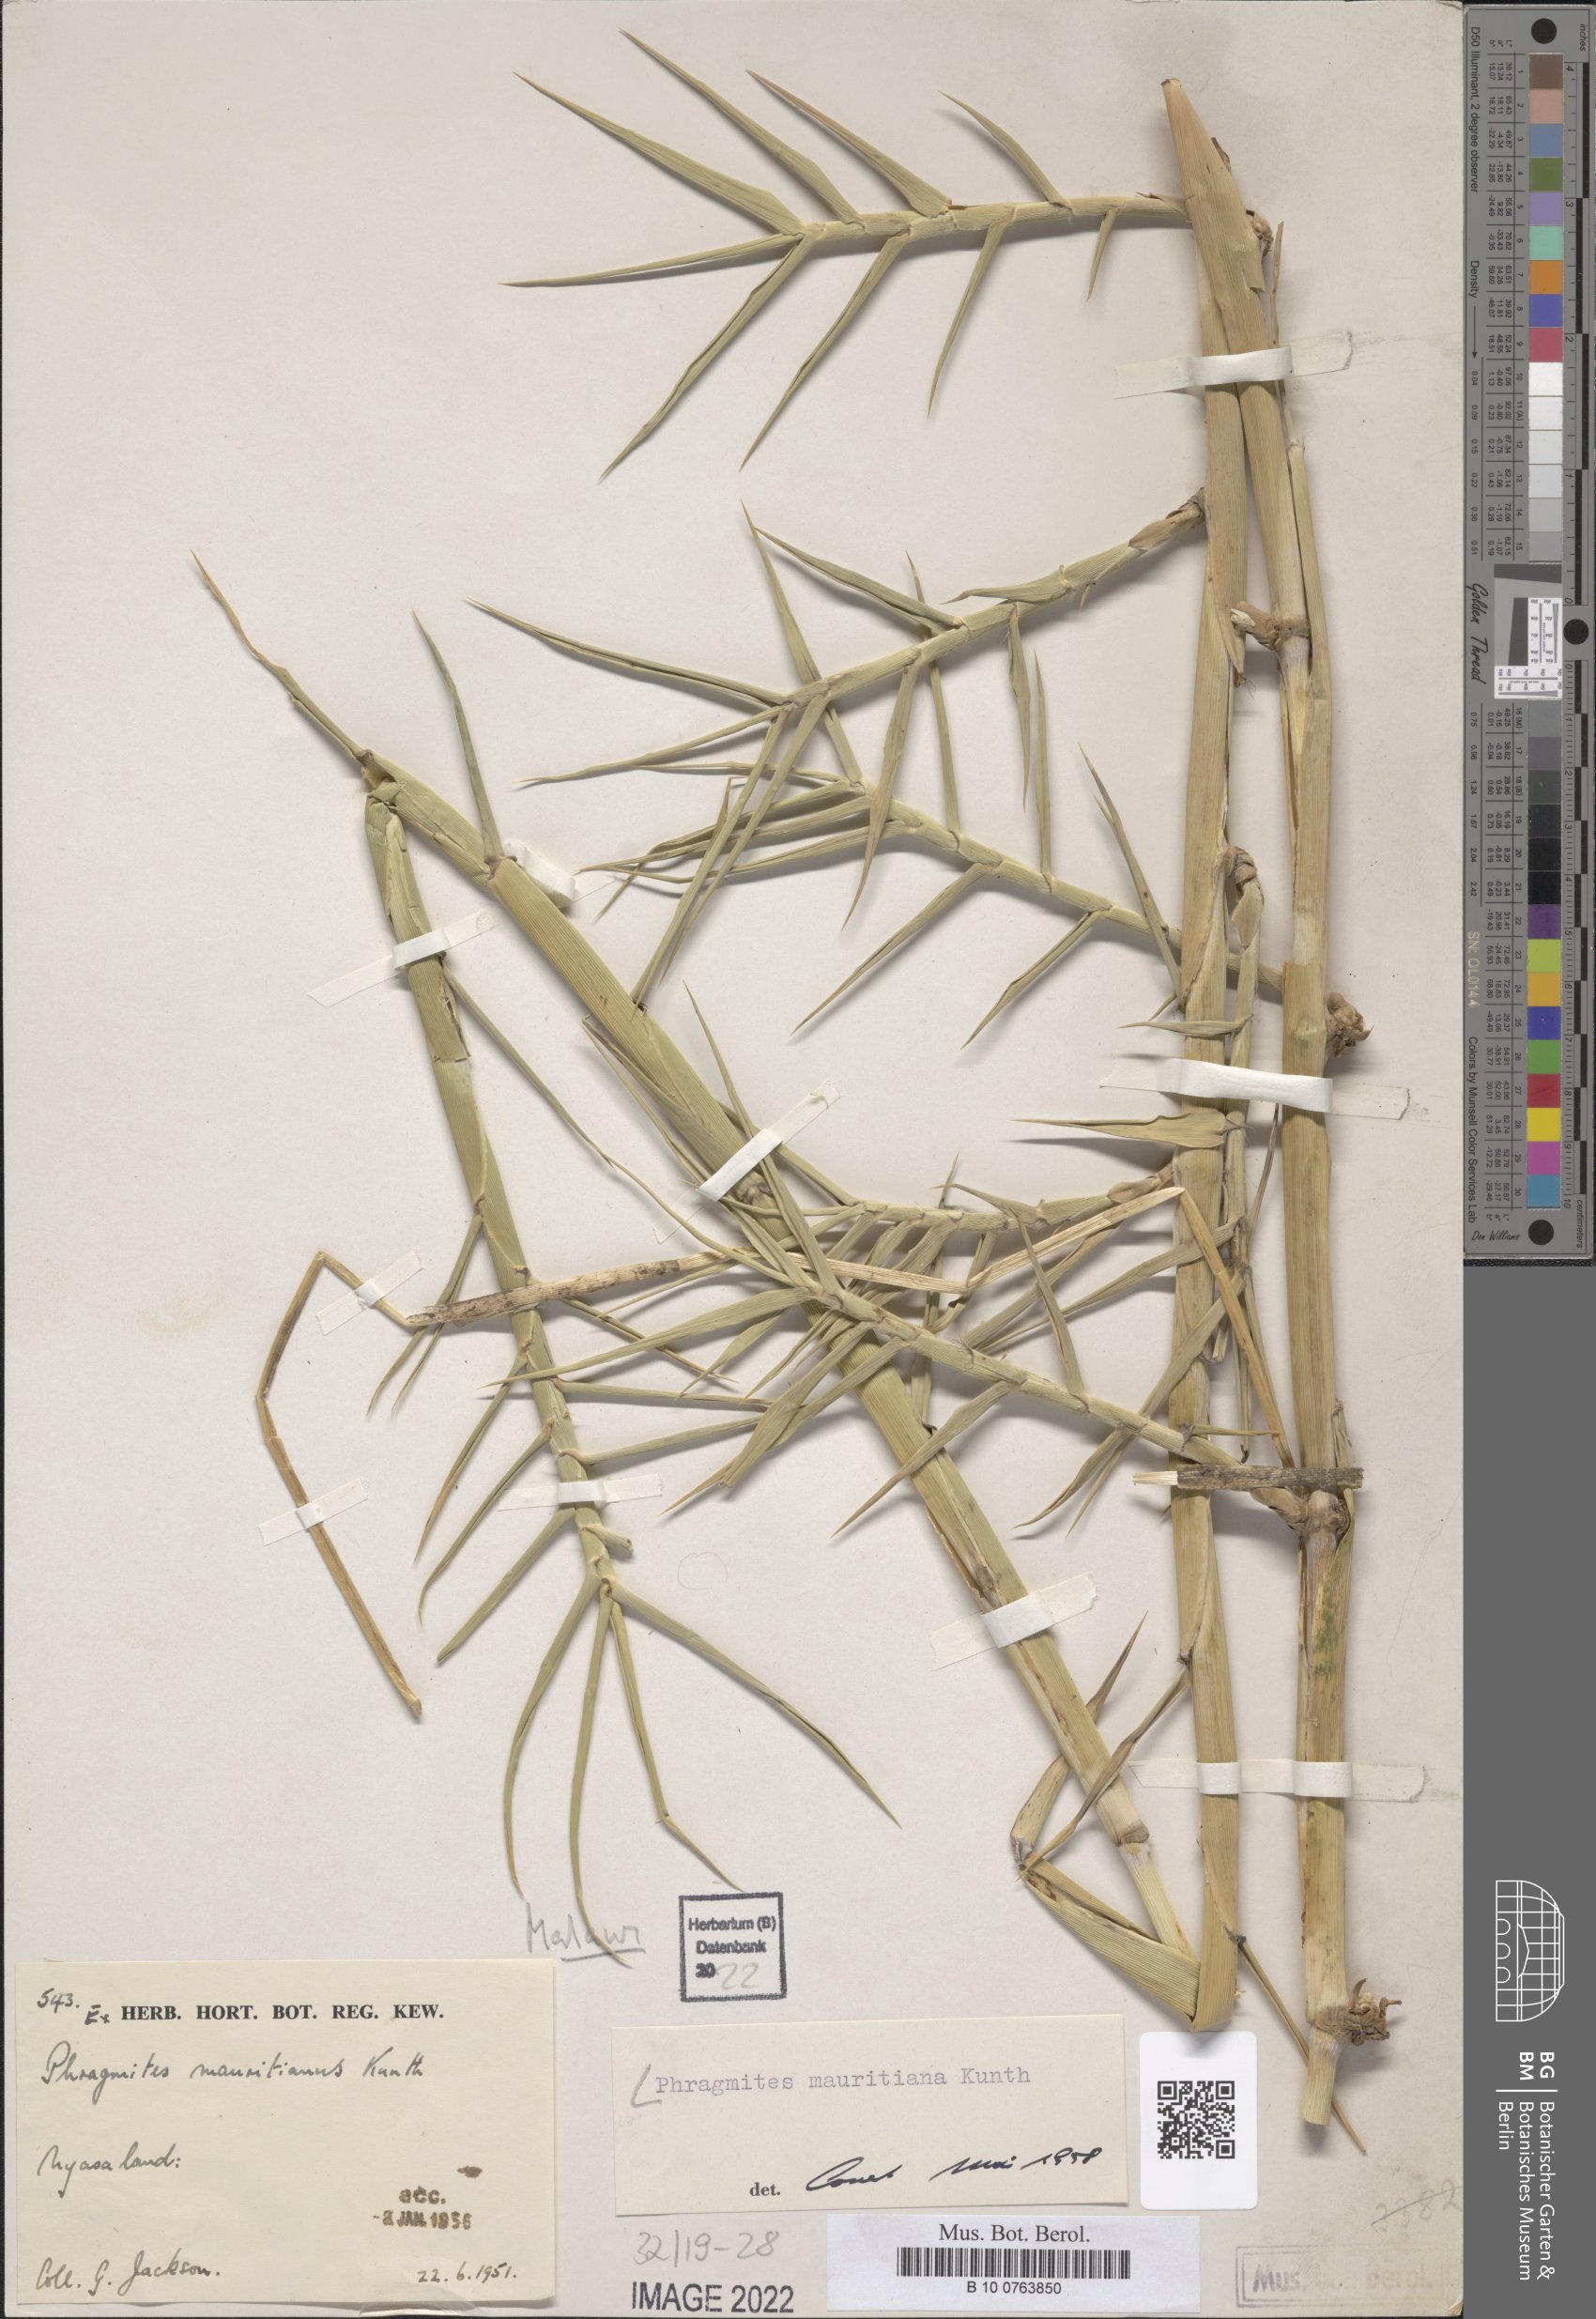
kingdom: Plantae
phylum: Tracheophyta
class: Liliopsida
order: Poales
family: Poaceae
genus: Phragmites
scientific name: Phragmites mauritianus
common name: Reed grass
